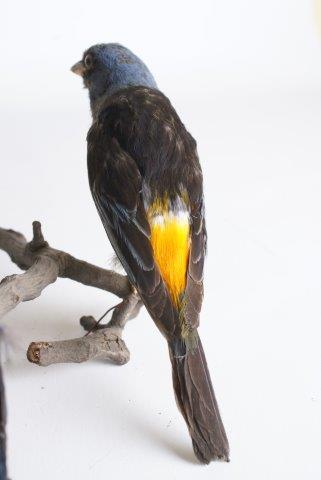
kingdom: Animalia
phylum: Chordata
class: Aves
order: Passeriformes
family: Thraupidae
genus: Rauenia
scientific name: Rauenia bonariensis
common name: Blue-and-yellow tanager
